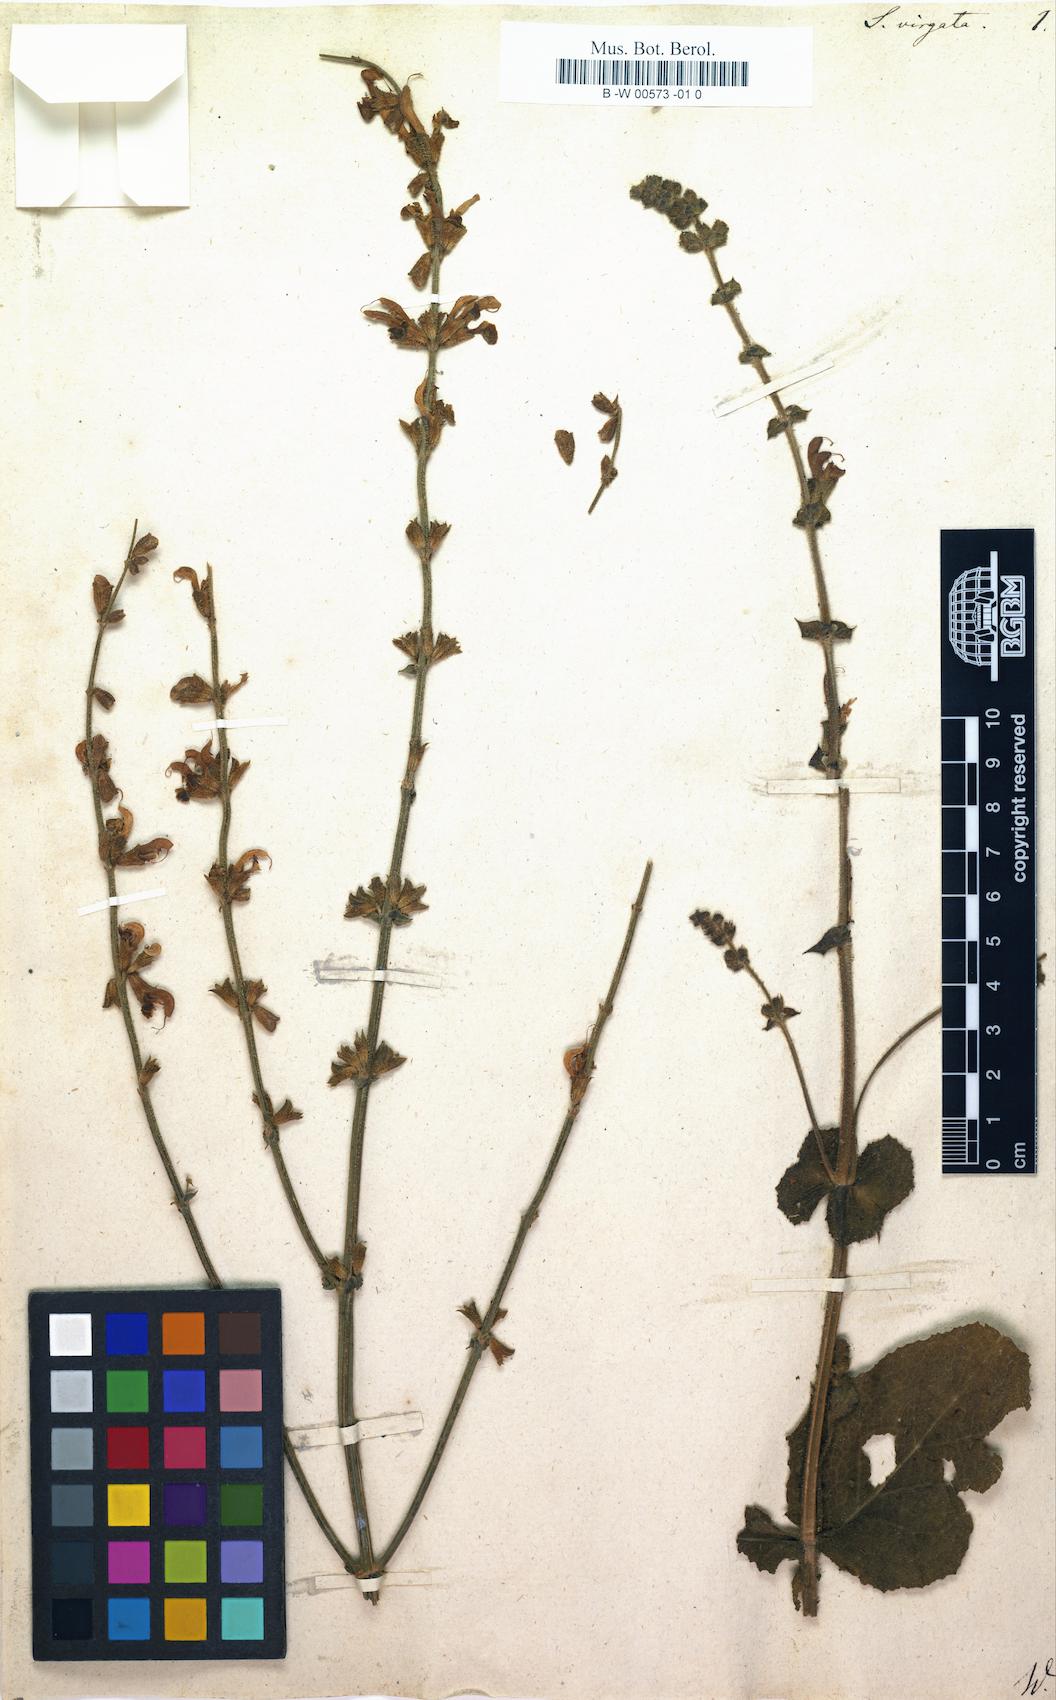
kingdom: Plantae
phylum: Tracheophyta
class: Magnoliopsida
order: Lamiales
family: Lamiaceae
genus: Salvia
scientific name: Salvia virgata
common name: Wand sage
